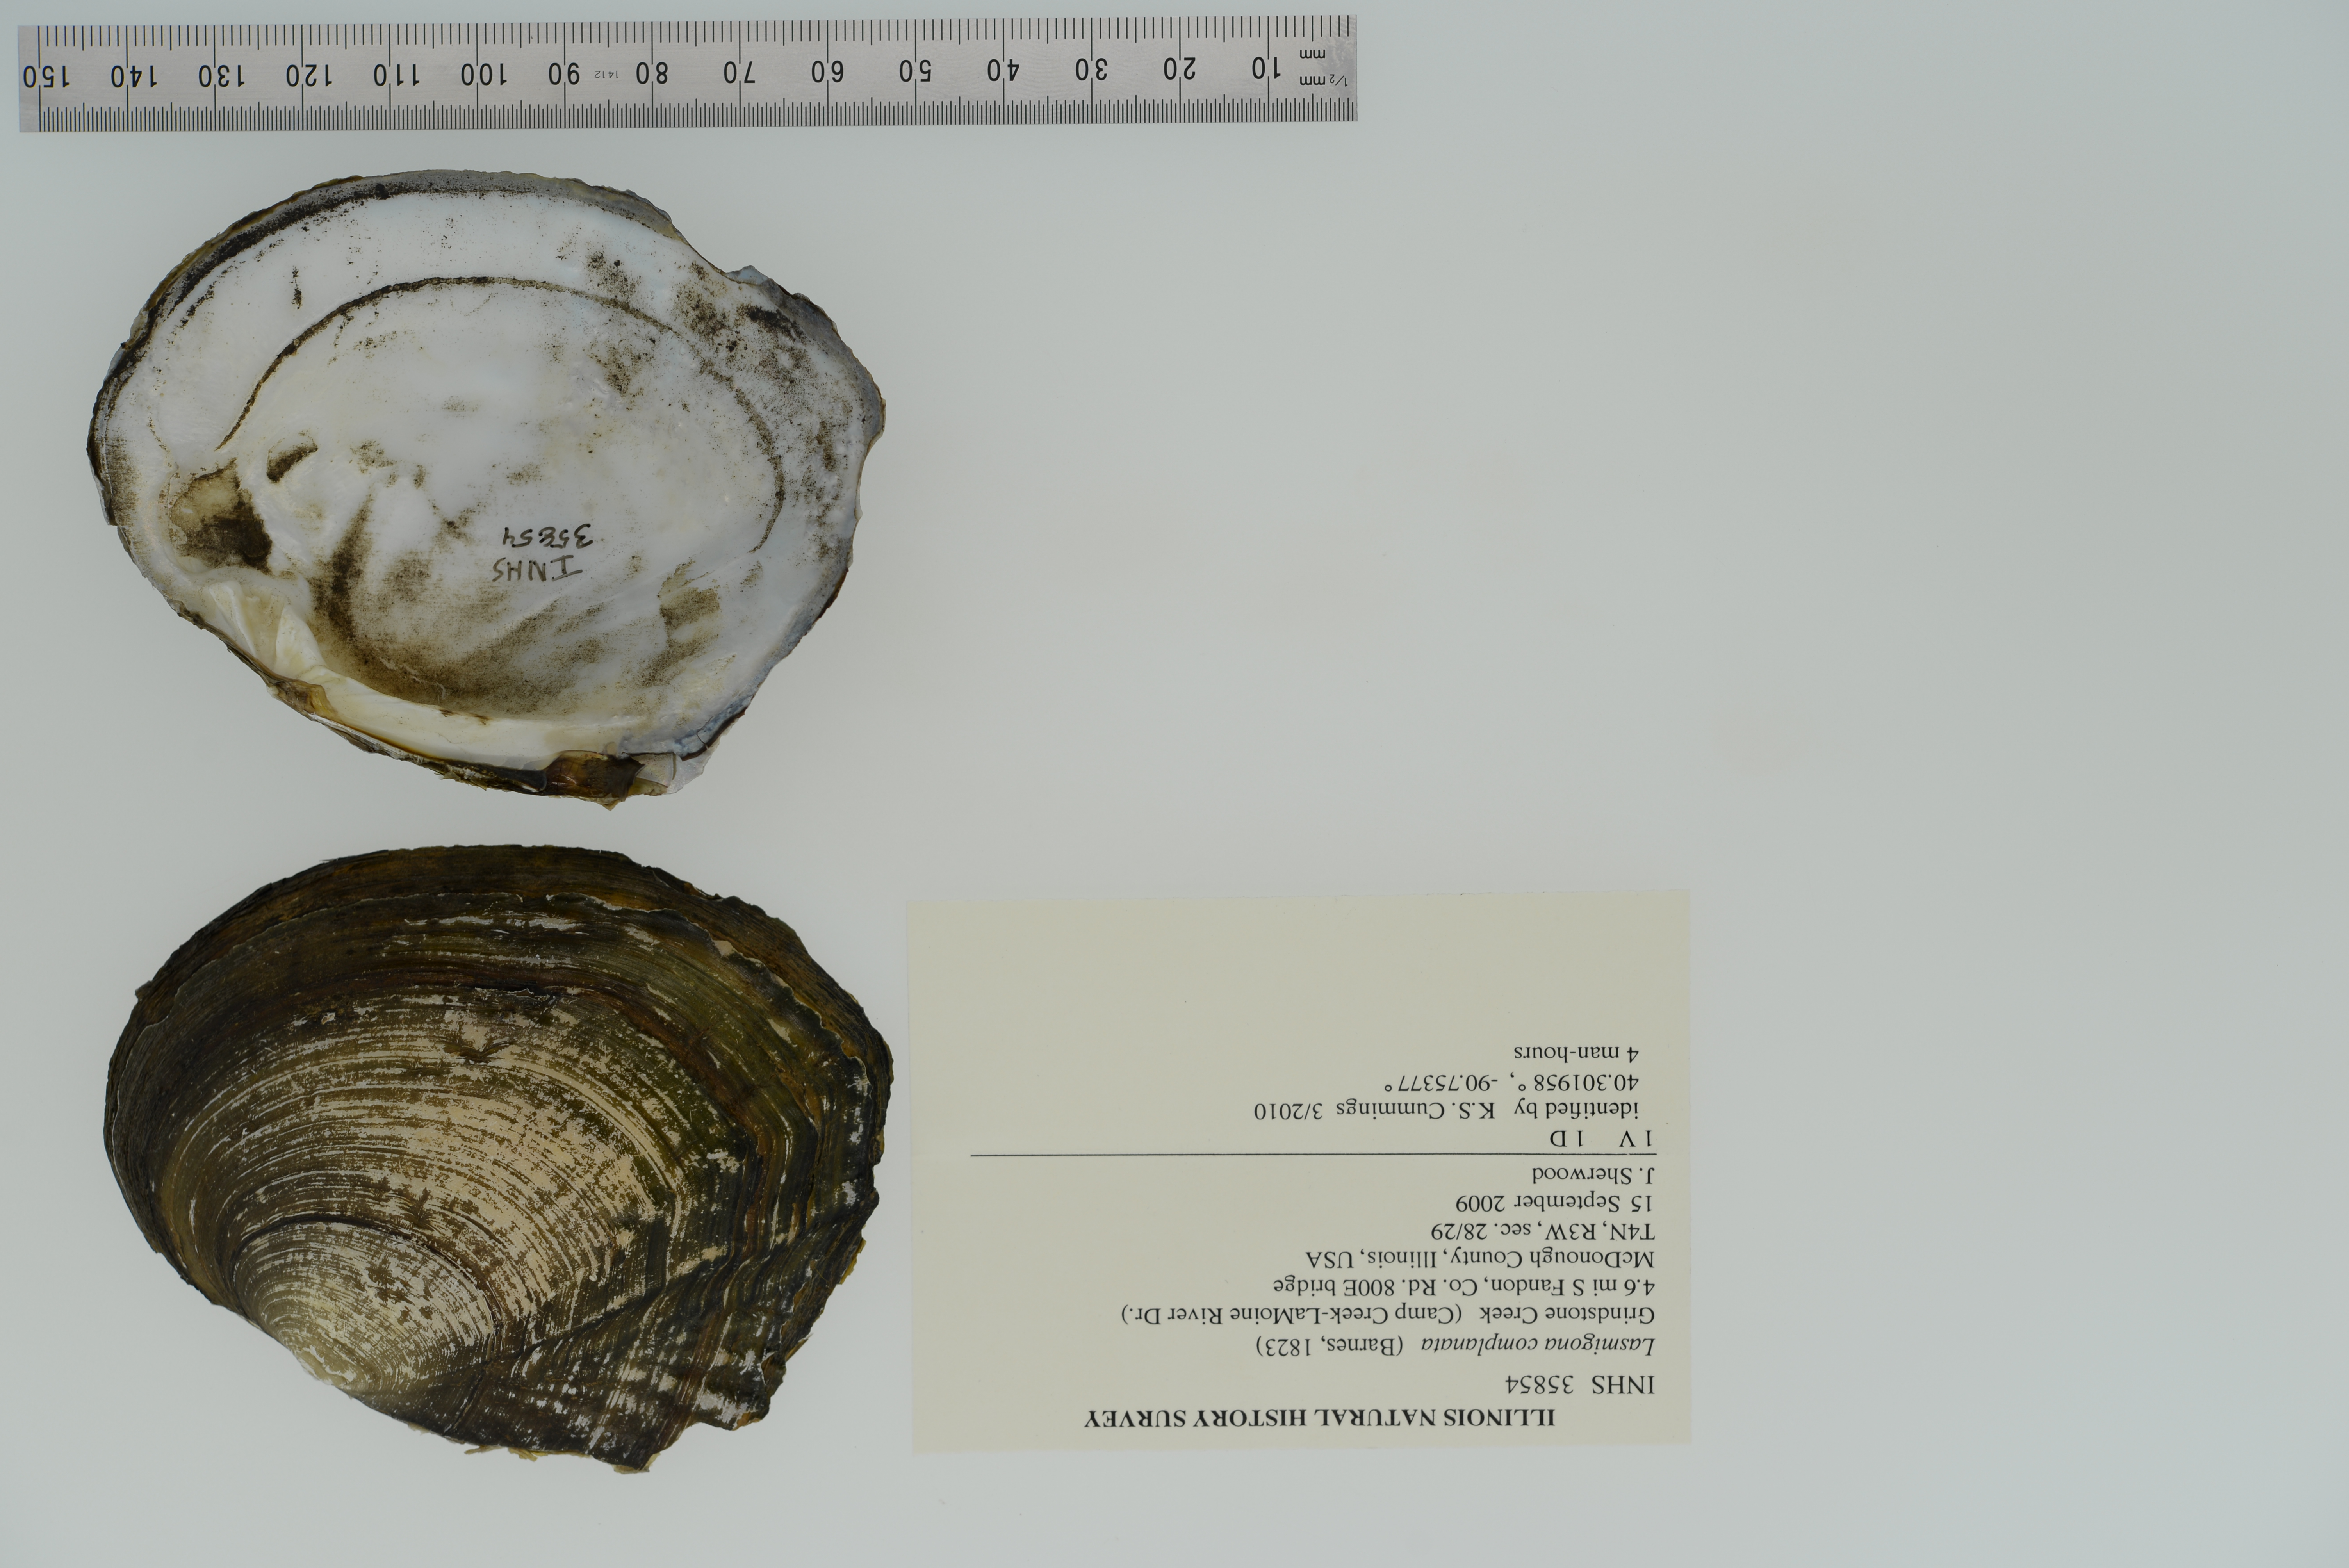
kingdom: Animalia
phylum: Mollusca
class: Bivalvia
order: Unionida
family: Unionidae
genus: Lasmigona
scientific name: Lasmigona complanata
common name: White heelsplitter
